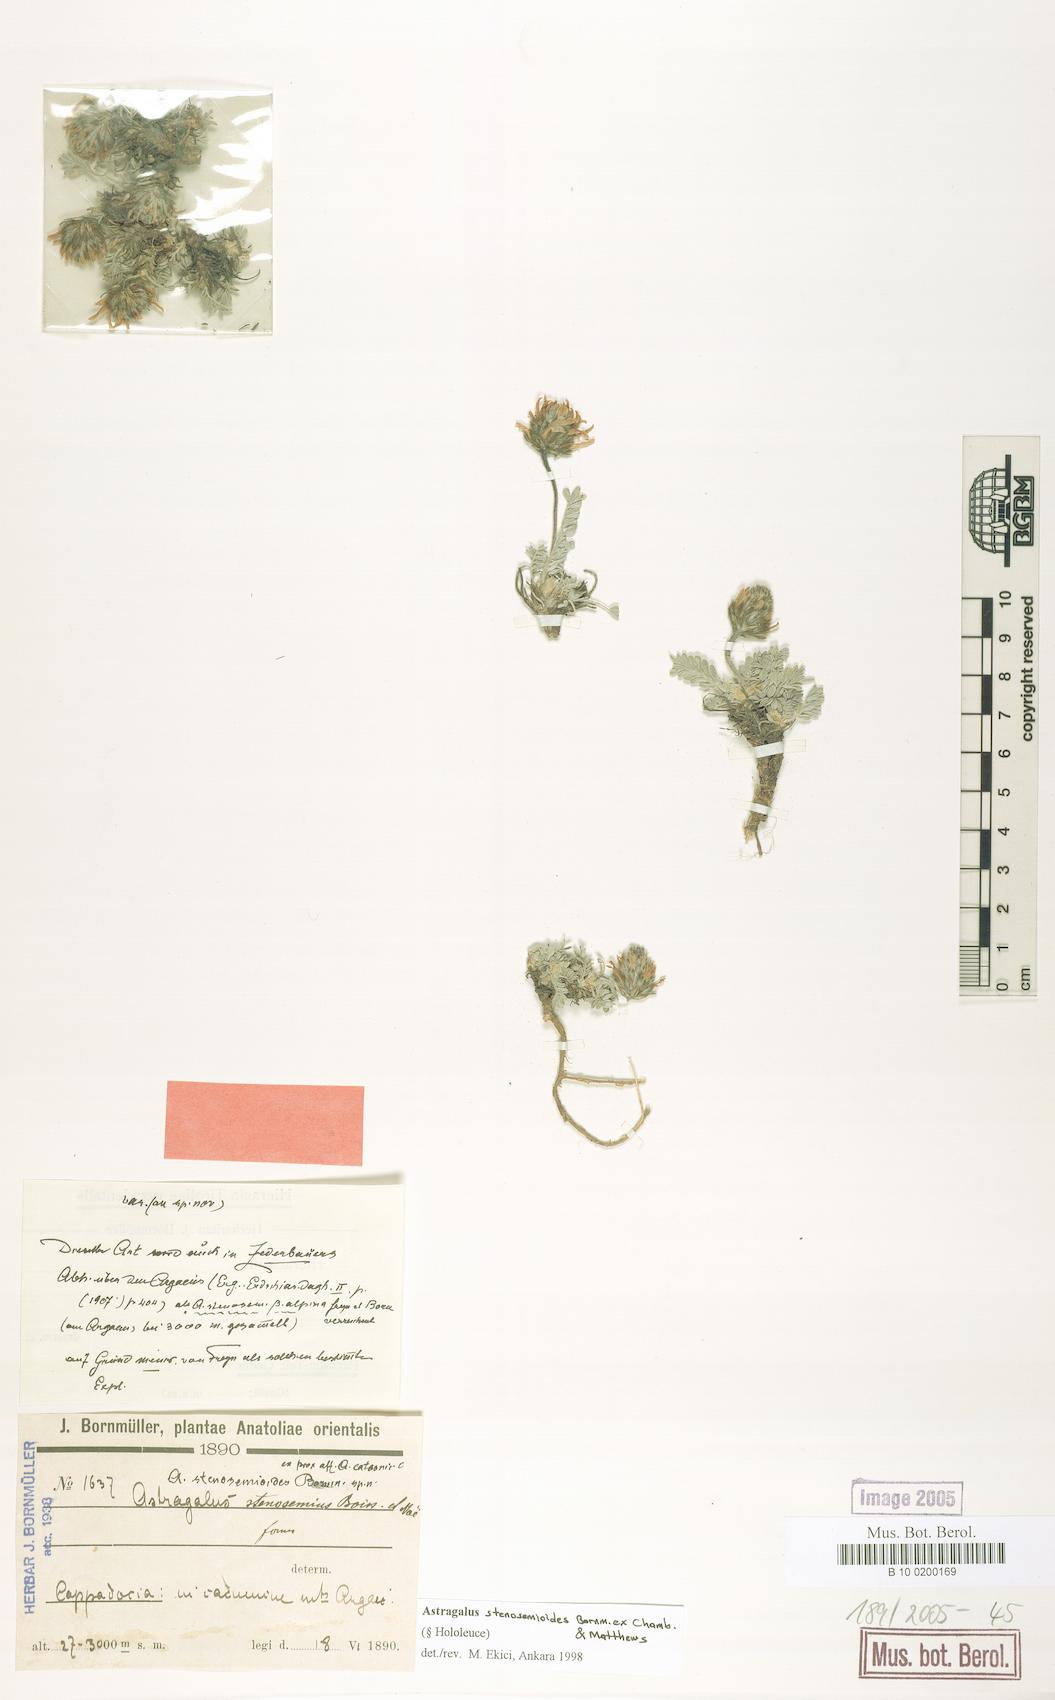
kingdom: Plantae
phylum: Tracheophyta
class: Magnoliopsida
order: Fabales
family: Fabaceae
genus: Astragalus
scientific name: Astragalus stenosemioides
